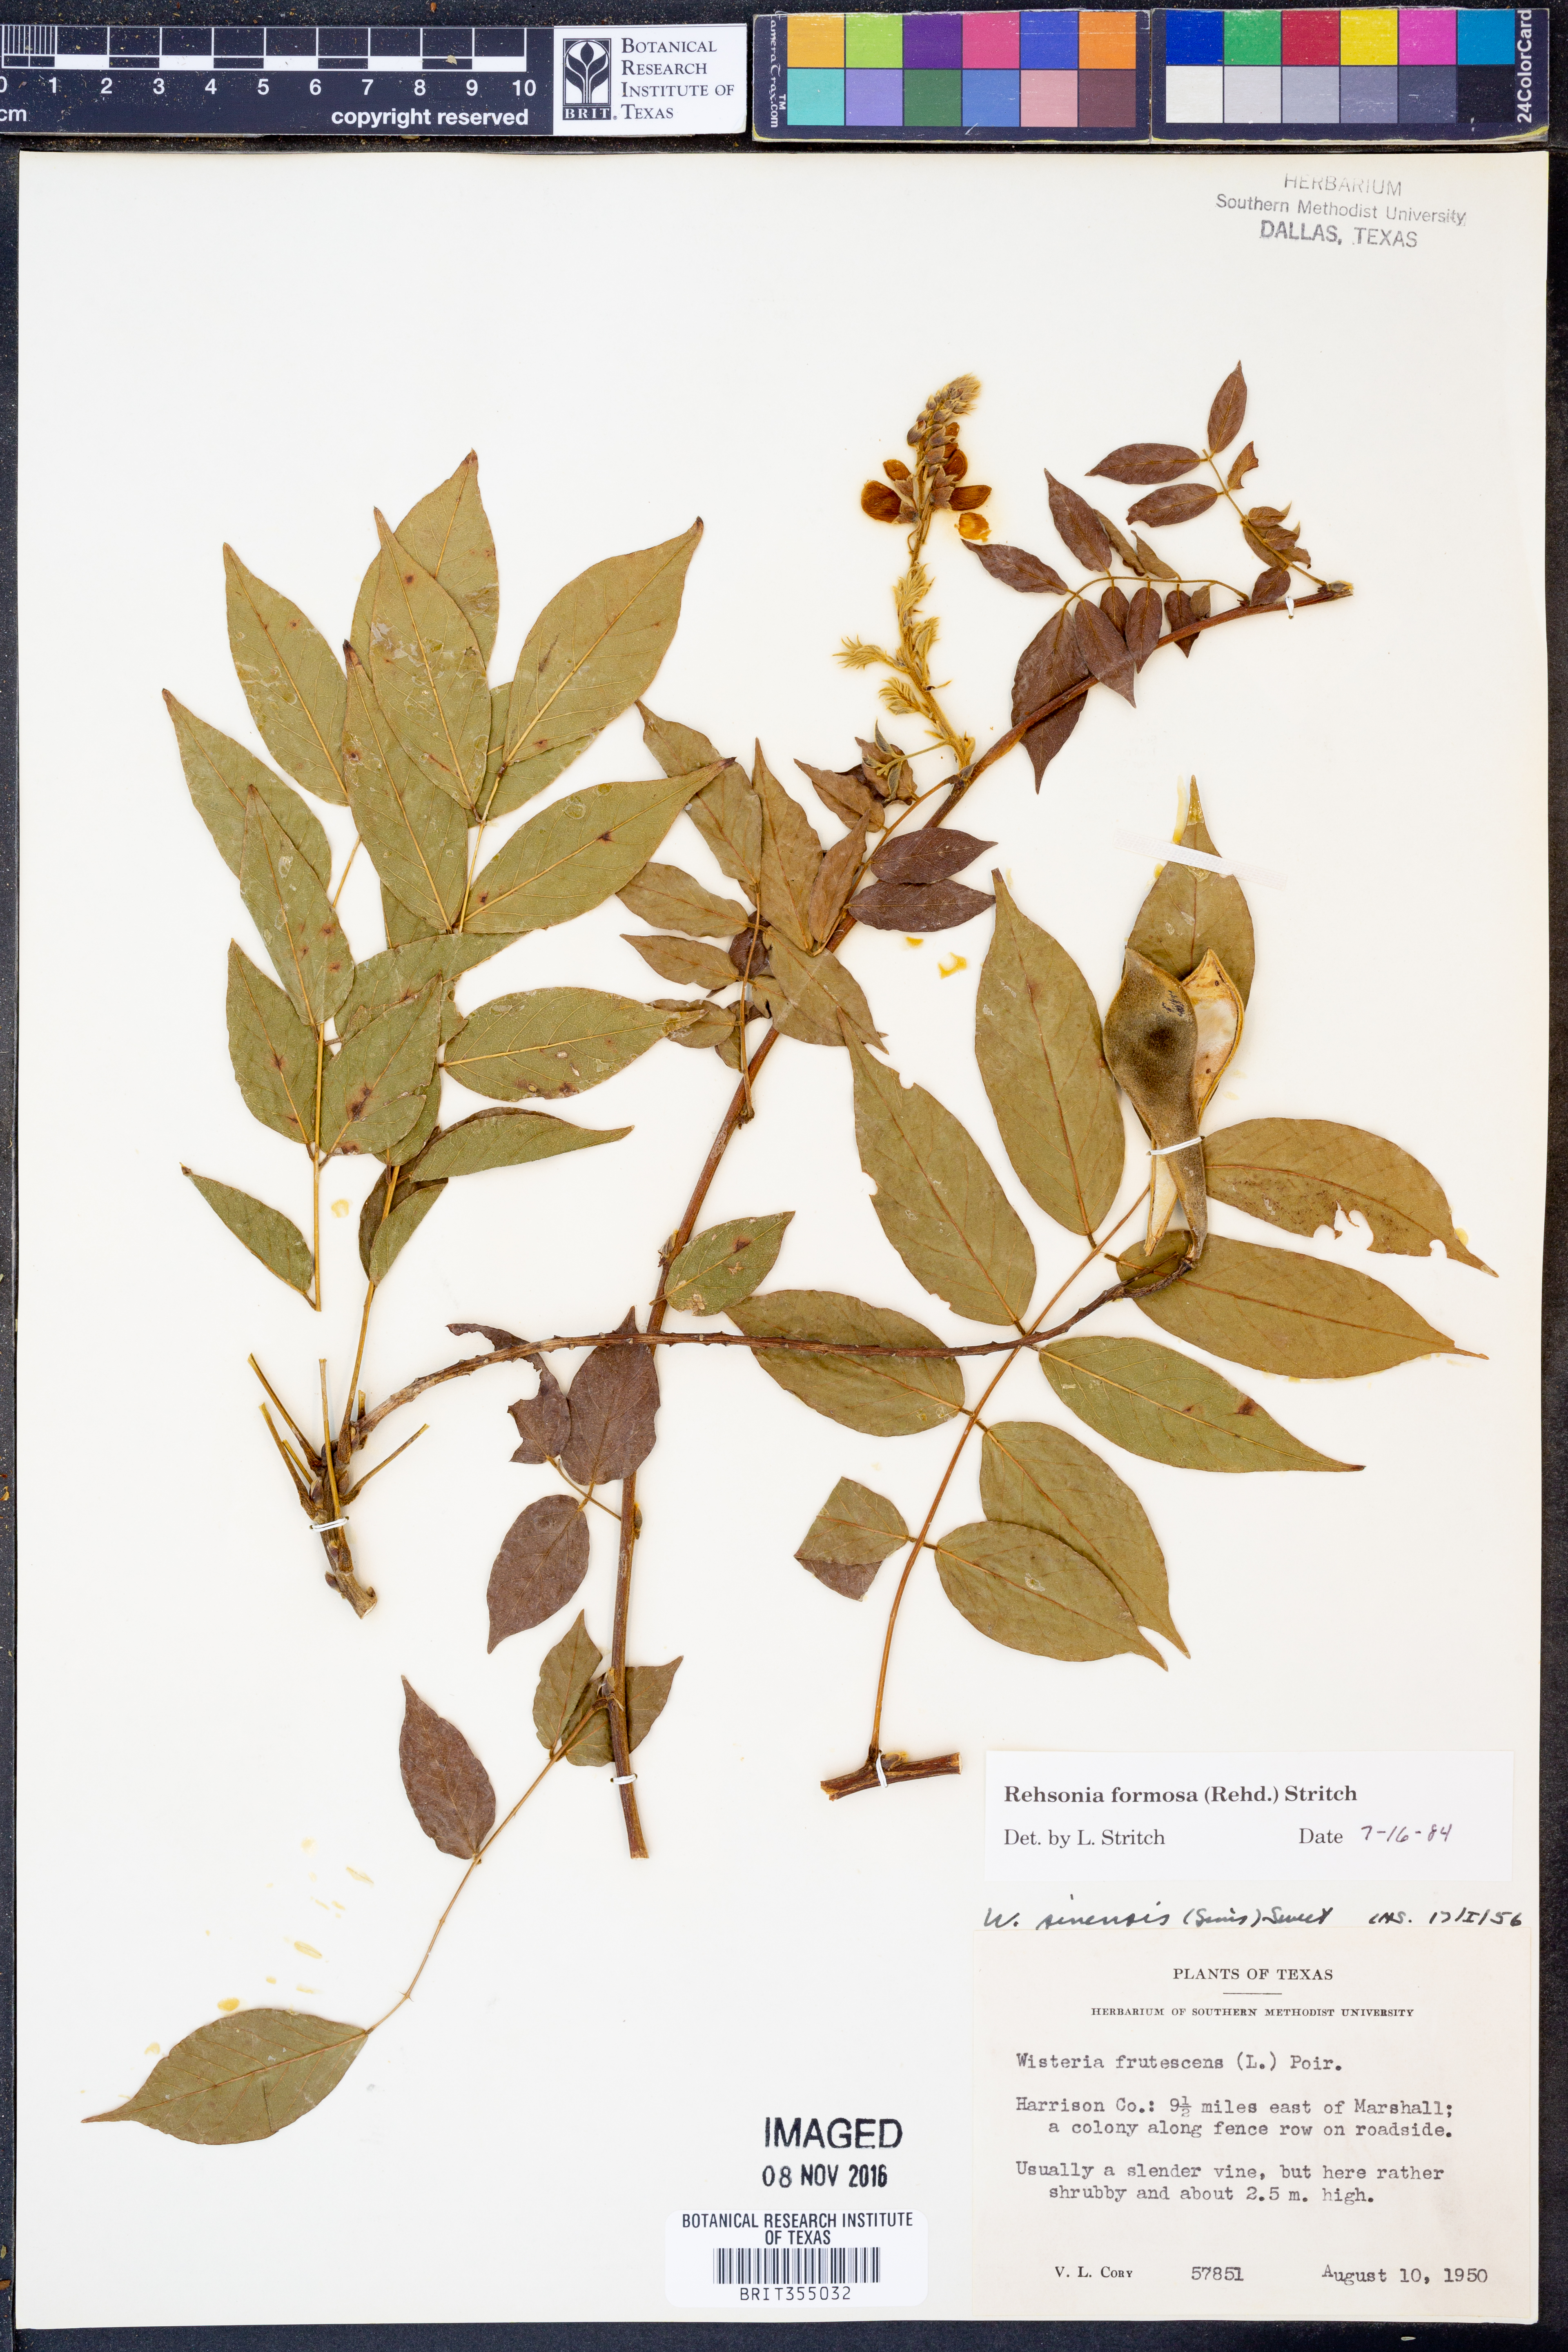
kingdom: Plantae
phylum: Tracheophyta
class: Magnoliopsida
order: Fabales
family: Fabaceae
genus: Wisteria
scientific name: Wisteria formosa
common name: Wisteria
